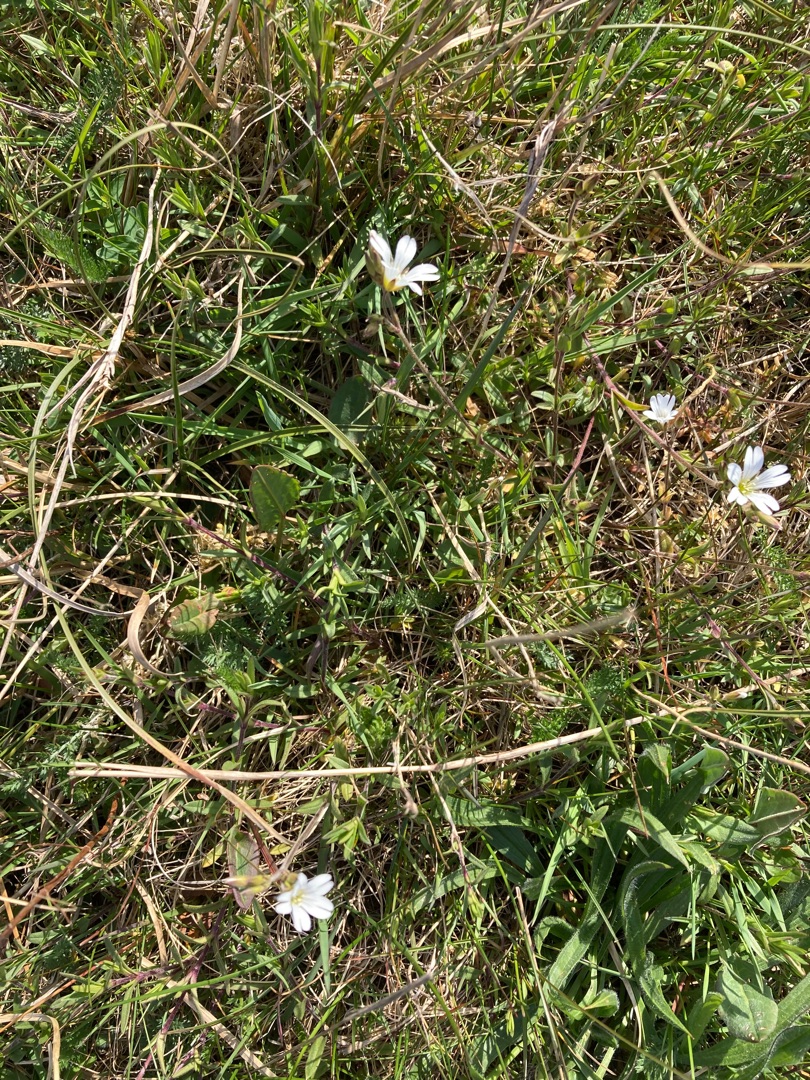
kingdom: Plantae
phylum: Tracheophyta
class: Magnoliopsida
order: Caryophyllales
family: Caryophyllaceae
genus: Cerastium
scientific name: Cerastium arvense
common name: Storblomstret hønsetarm
